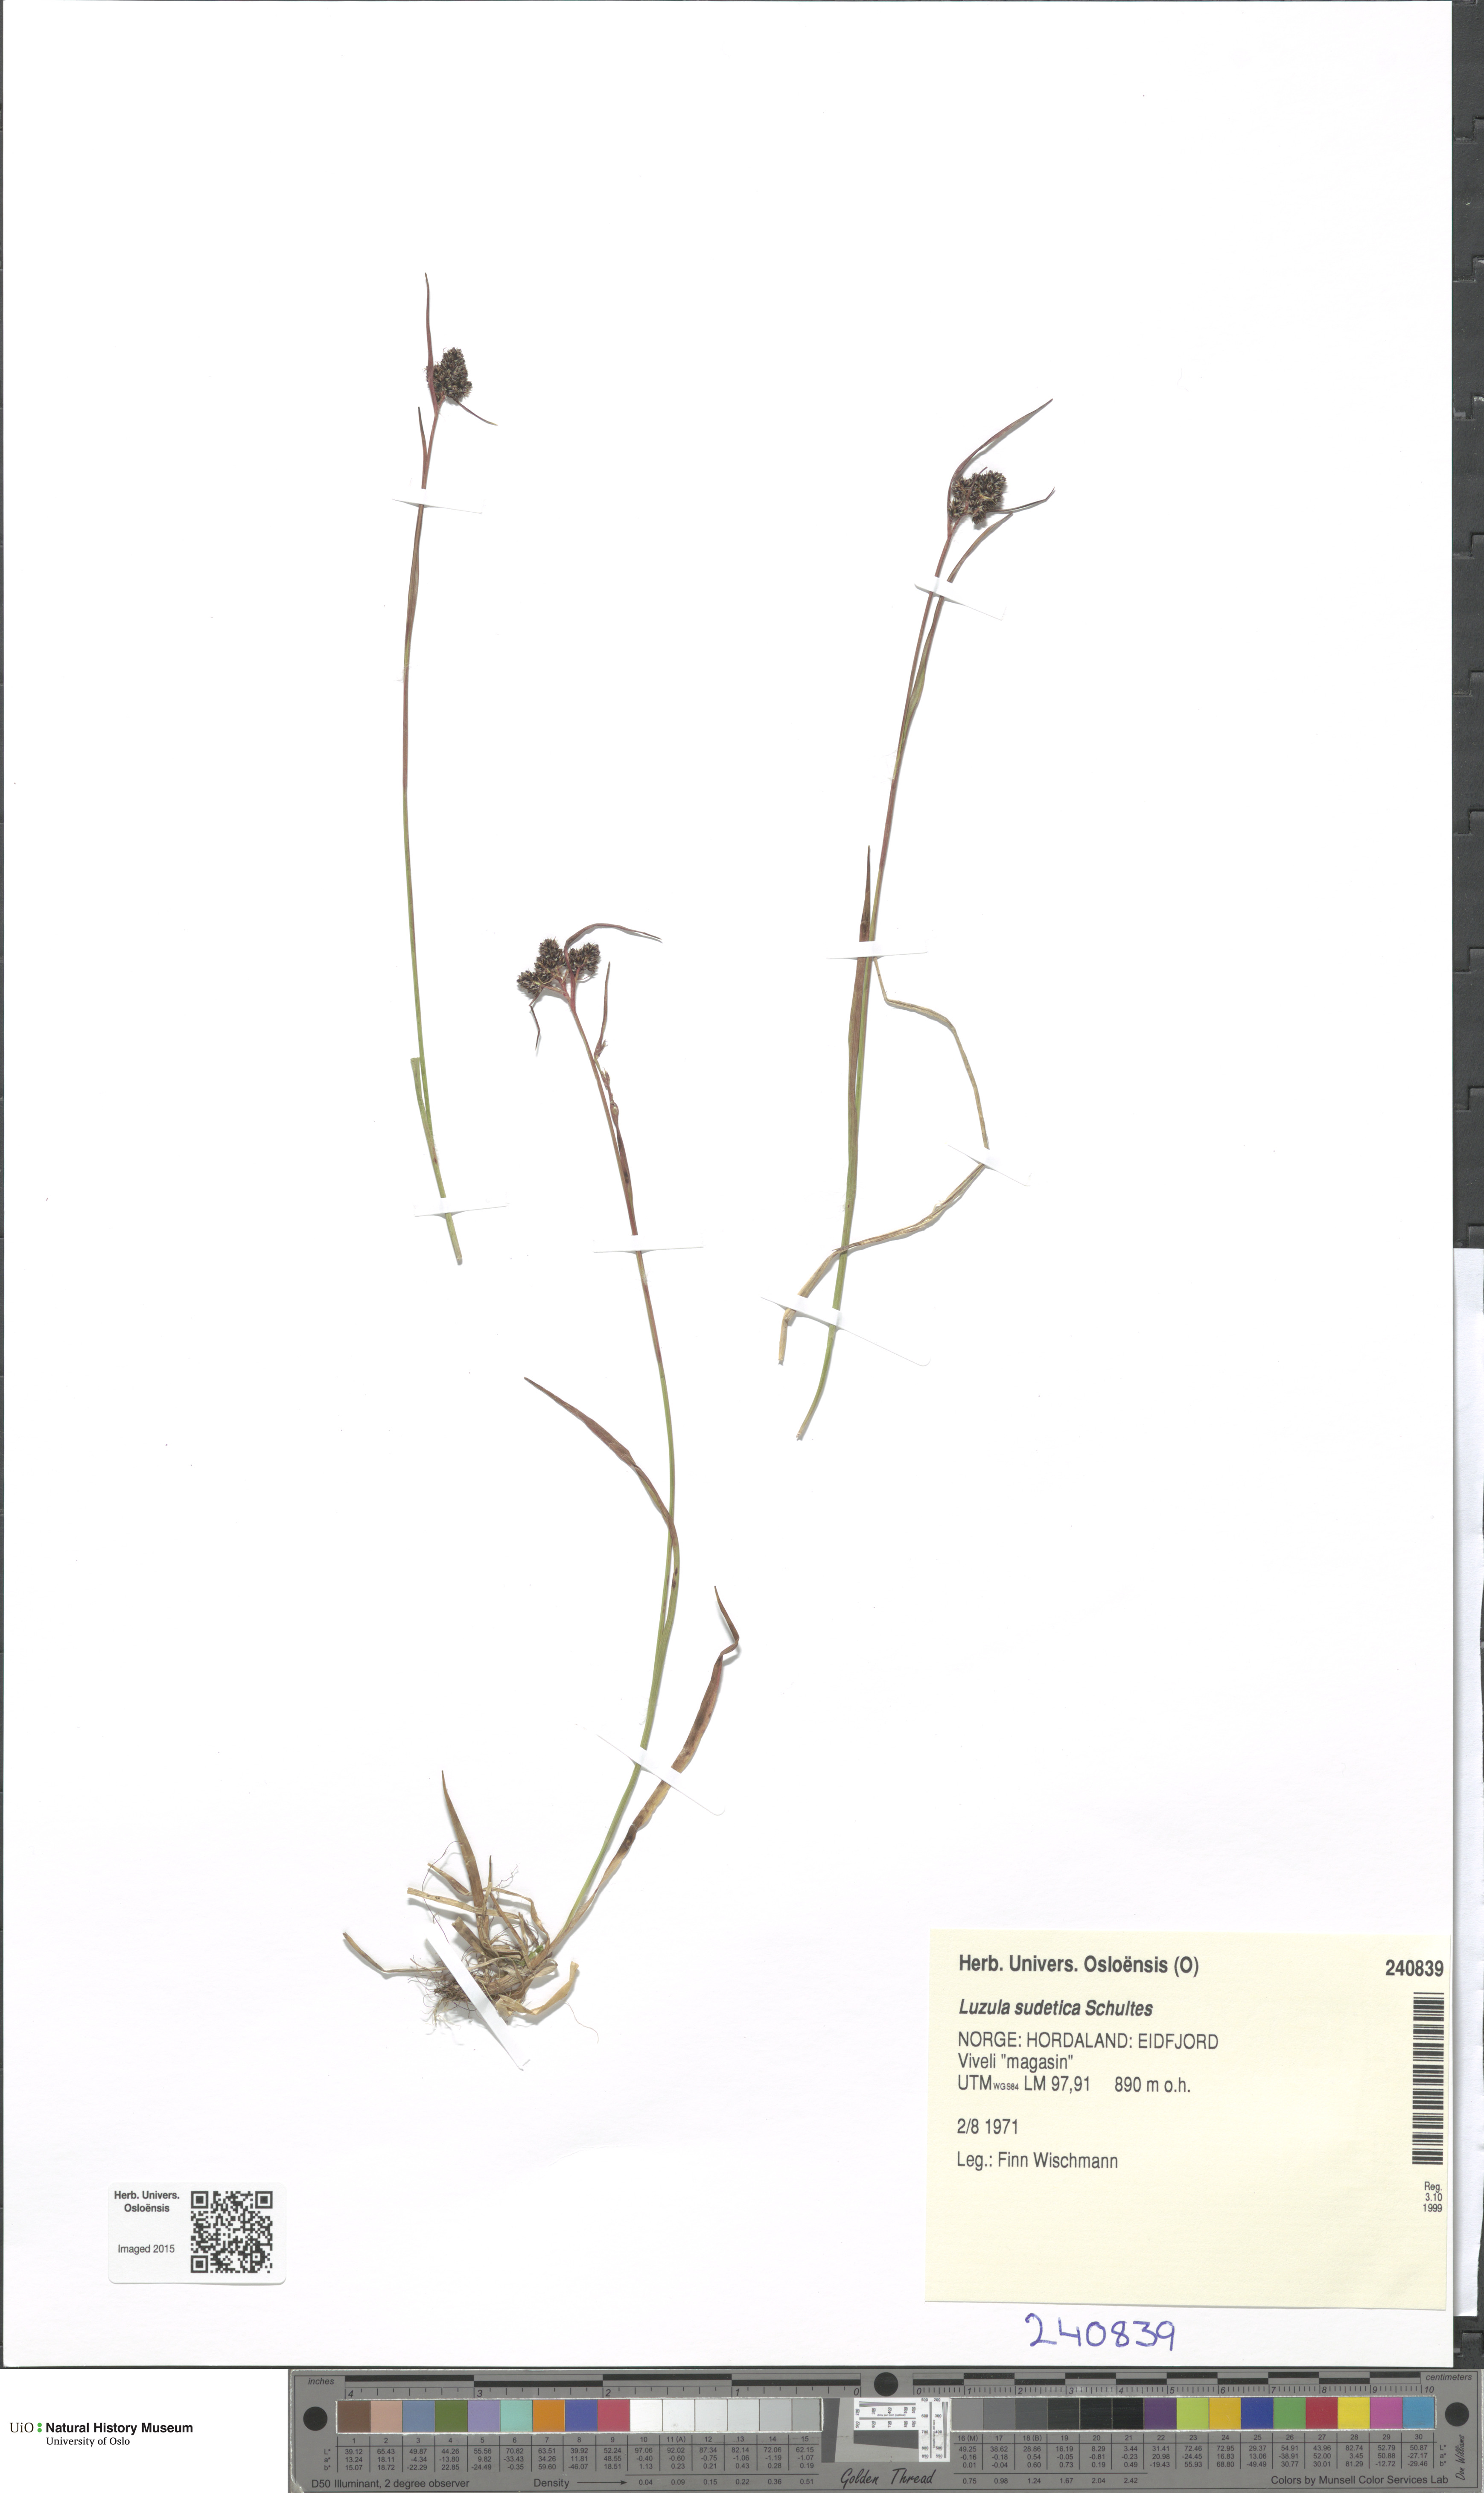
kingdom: Plantae
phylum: Tracheophyta
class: Liliopsida
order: Poales
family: Juncaceae
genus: Luzula
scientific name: Luzula sudetica
